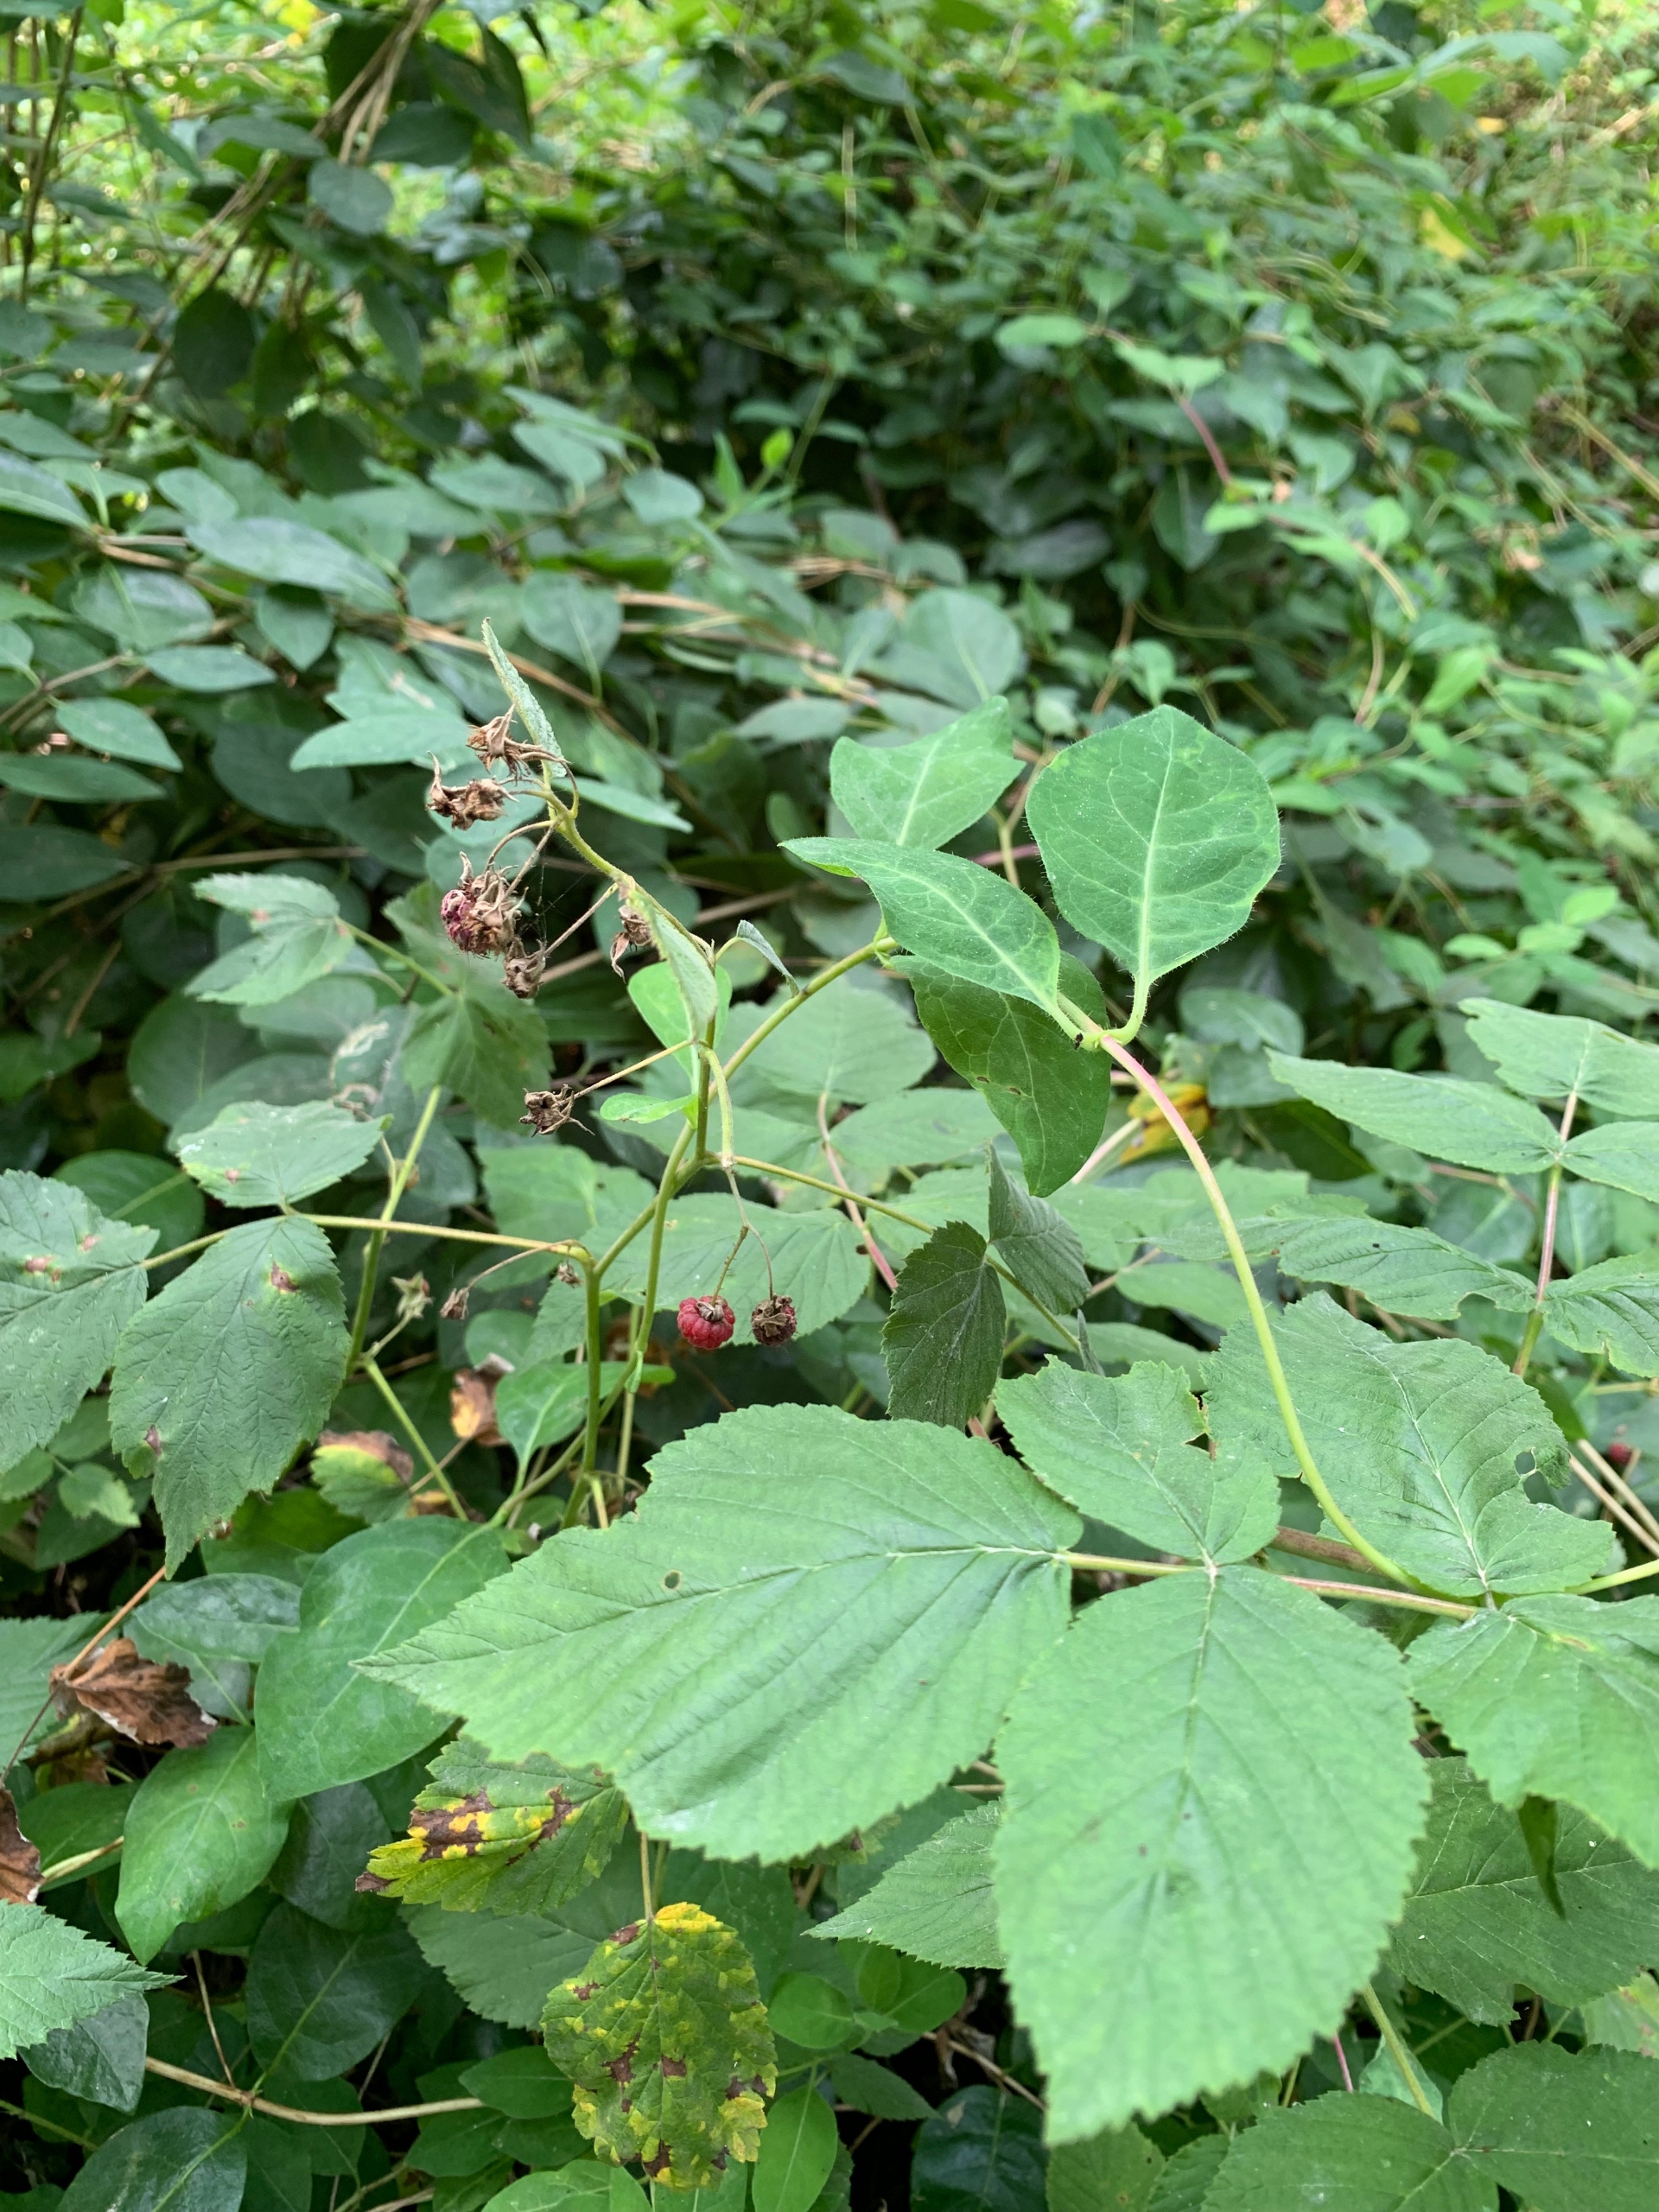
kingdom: Plantae
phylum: Tracheophyta
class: Magnoliopsida
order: Rosales
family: Rosaceae
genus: Rubus
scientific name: Rubus idaeus
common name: Hindbær
